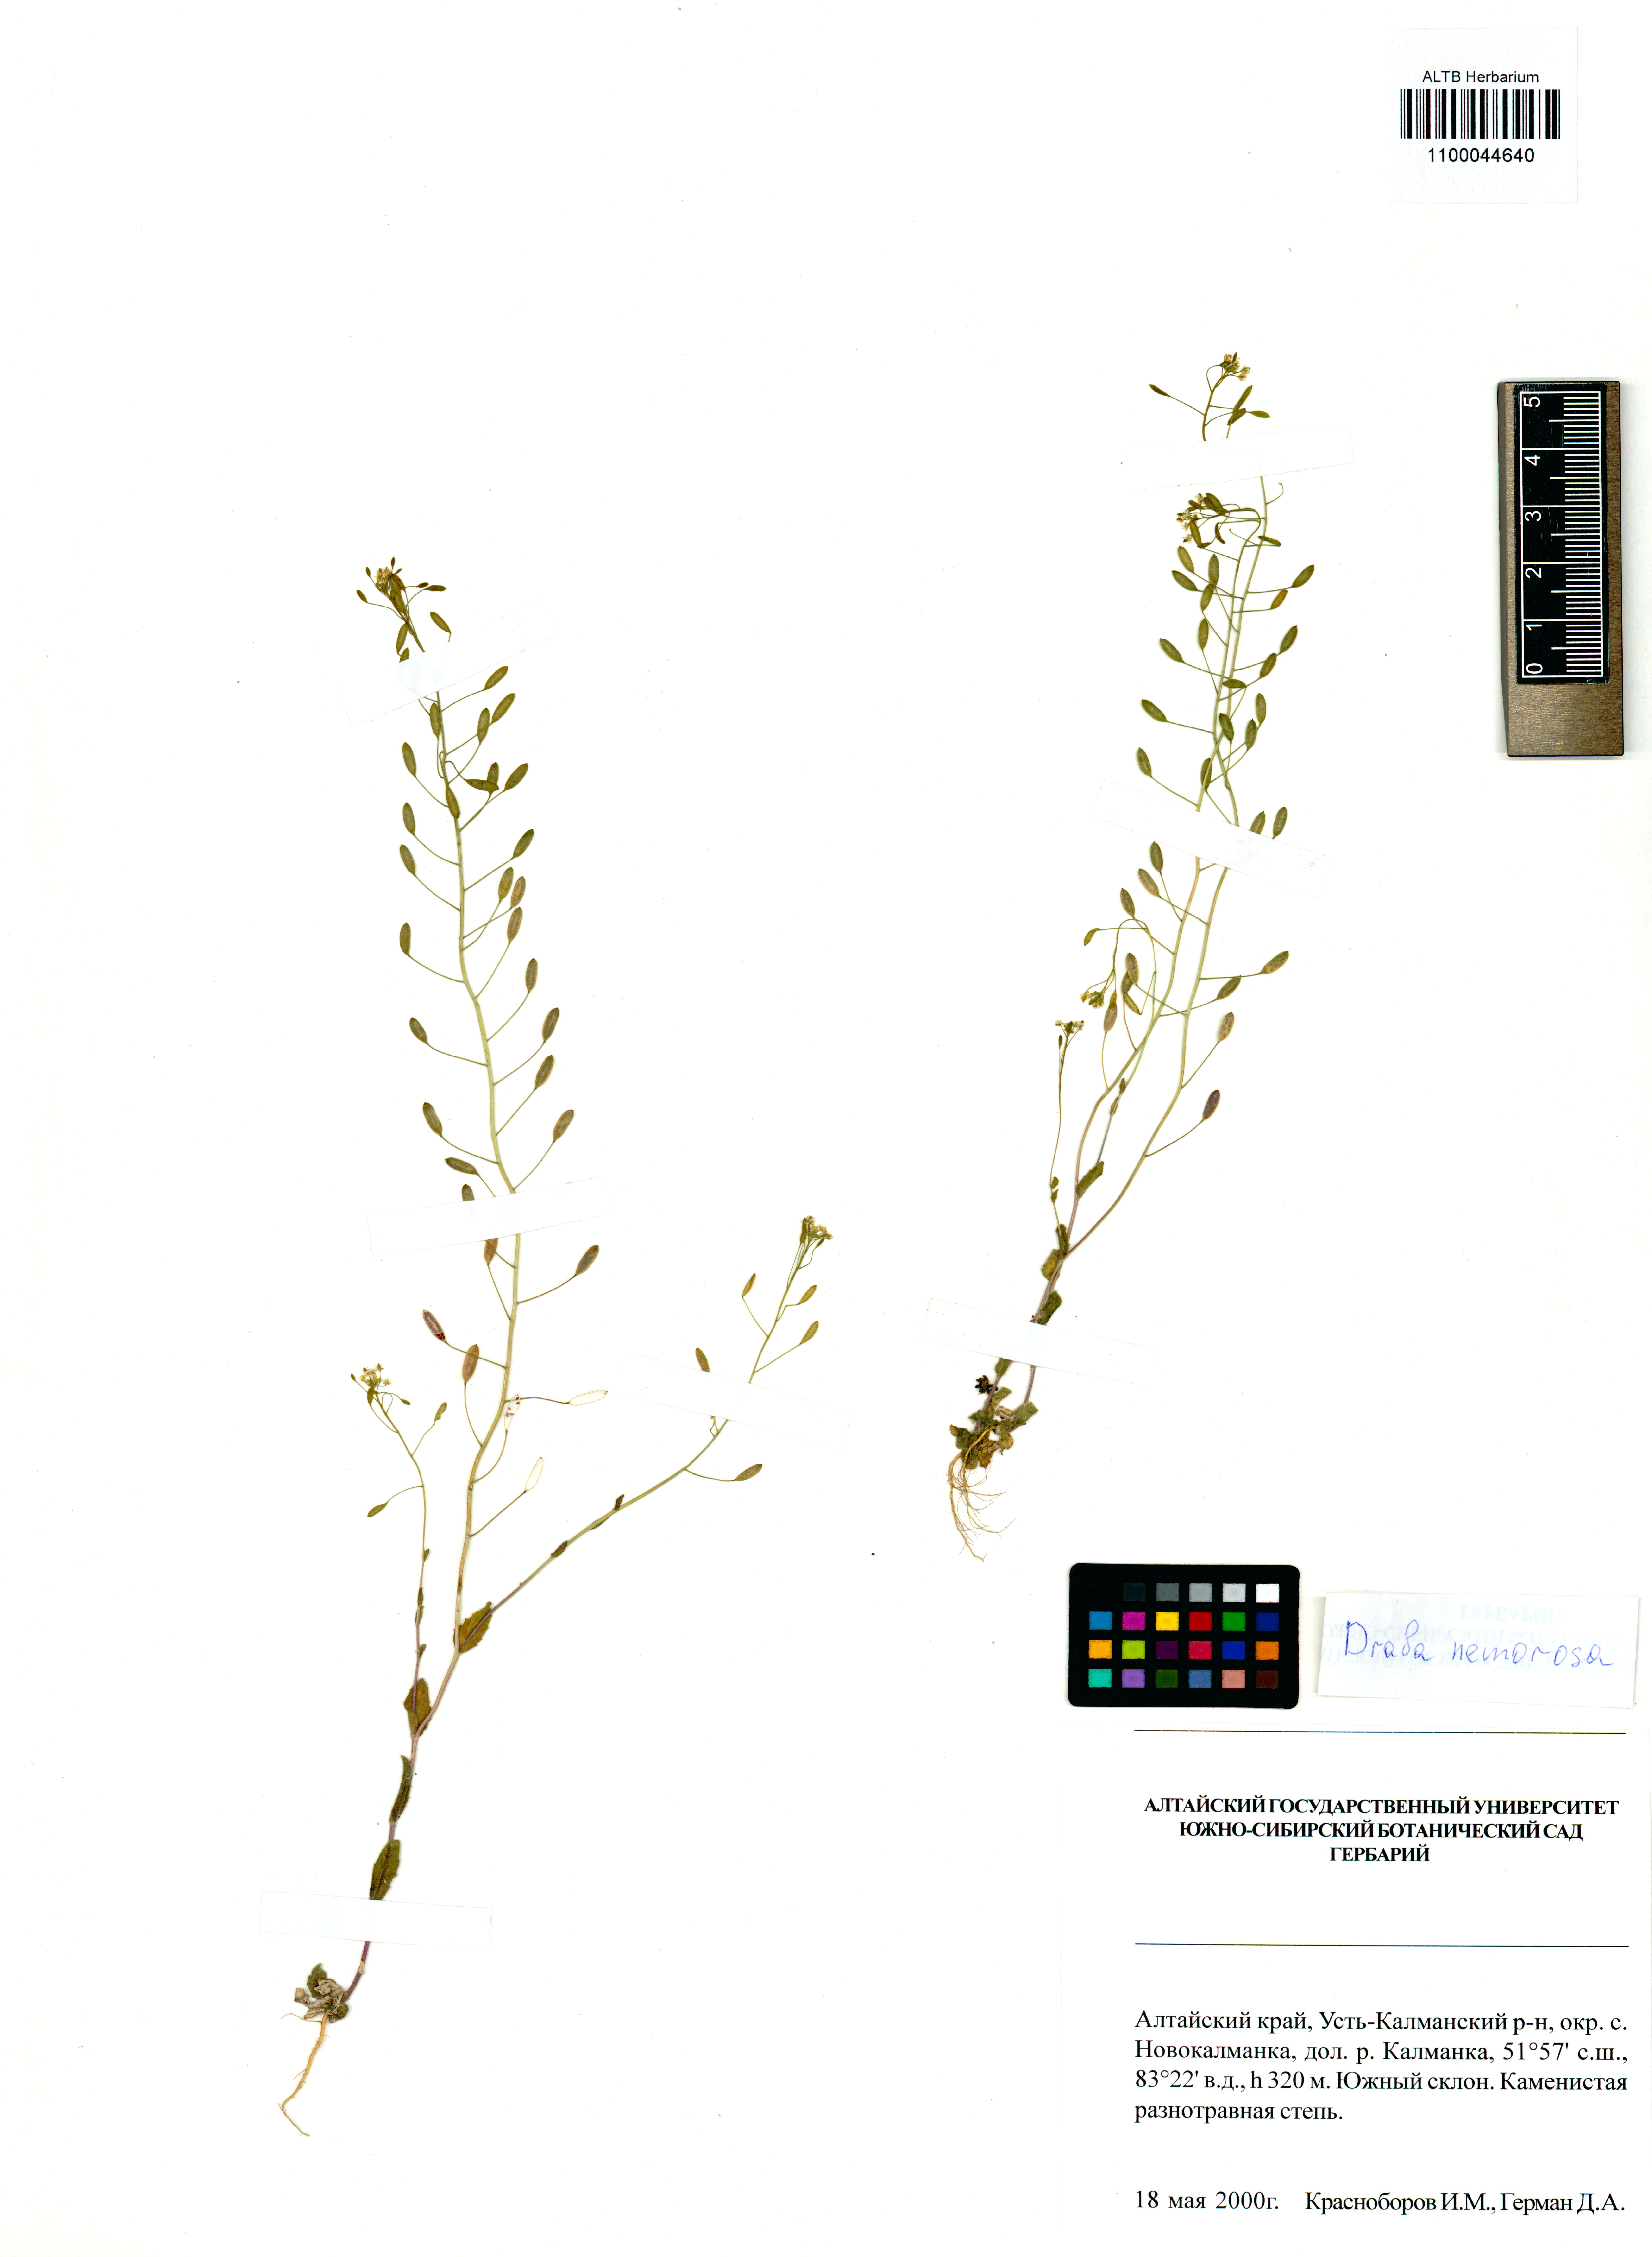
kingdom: Plantae
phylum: Tracheophyta
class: Magnoliopsida
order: Brassicales
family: Brassicaceae
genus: Draba
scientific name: Draba nemorosa
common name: Wood whitlow-grass
